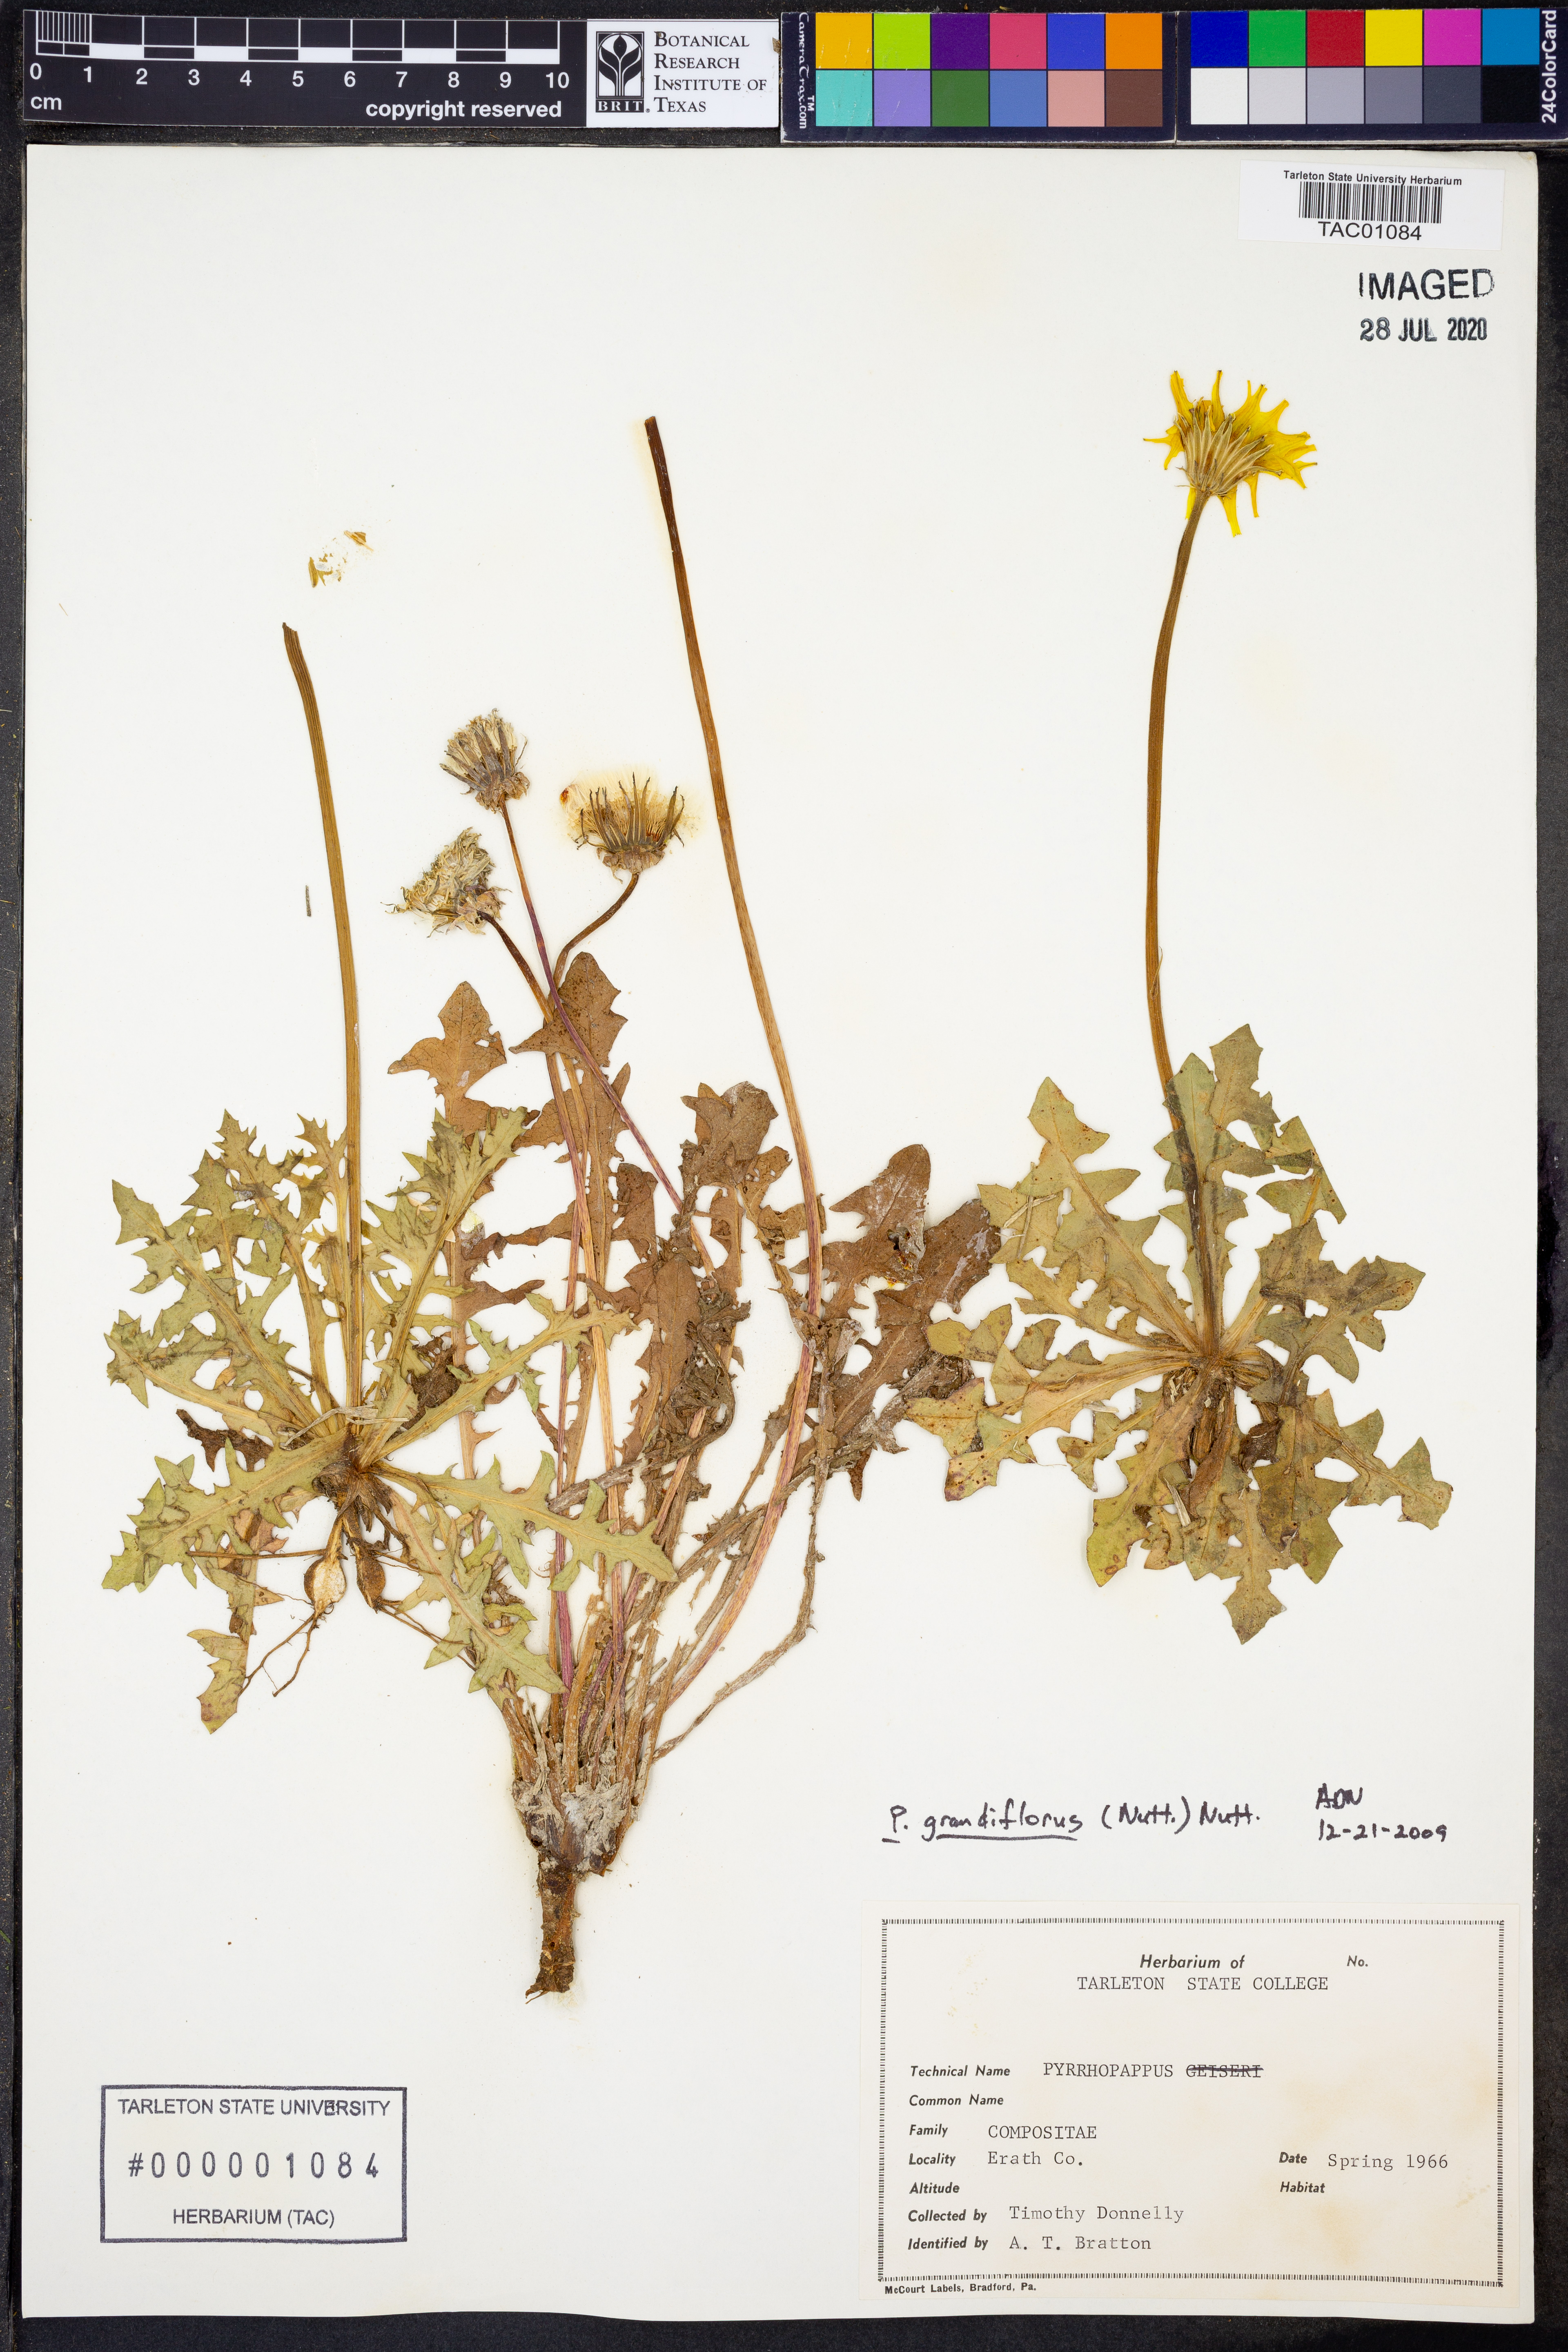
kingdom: Plantae
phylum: Tracheophyta
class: Magnoliopsida
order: Asterales
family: Asteraceae
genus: Pyrrhopappus
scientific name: Pyrrhopappus grandiflorus
